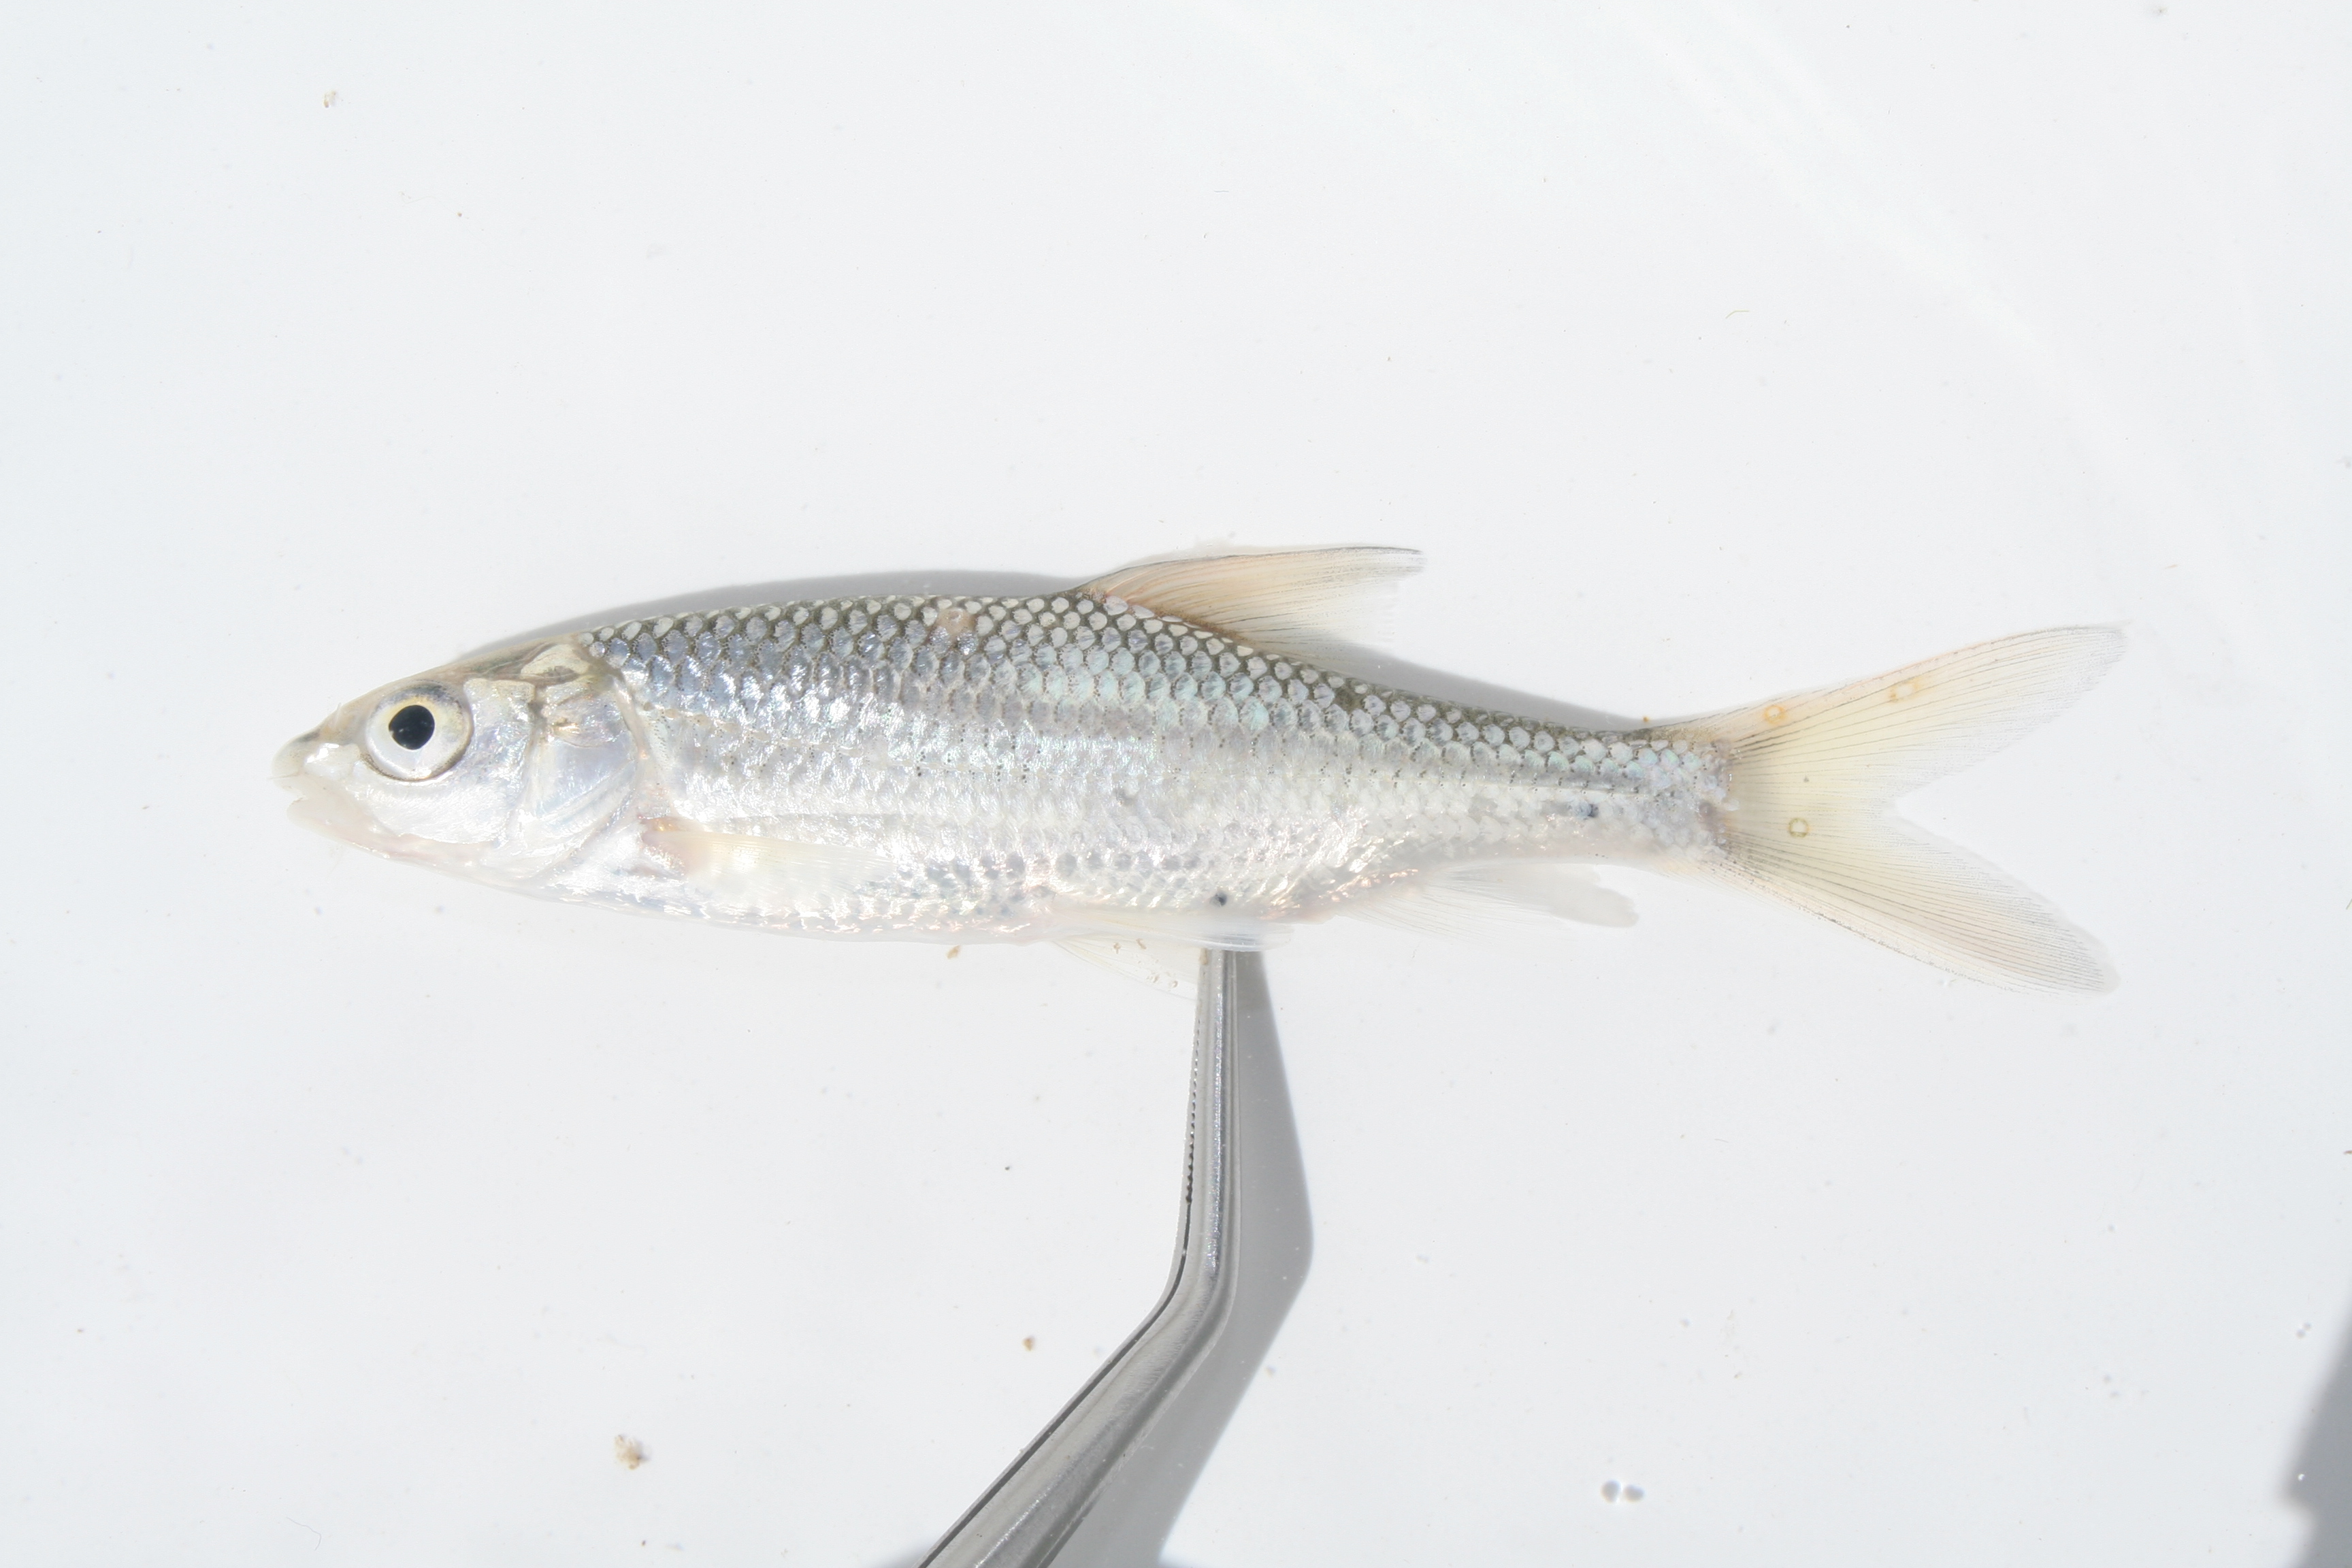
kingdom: Animalia
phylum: Chordata
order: Cypriniformes
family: Cyprinidae
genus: Labeobarbus
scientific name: Labeobarbus aeneus
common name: Smallmouth yellowfish
